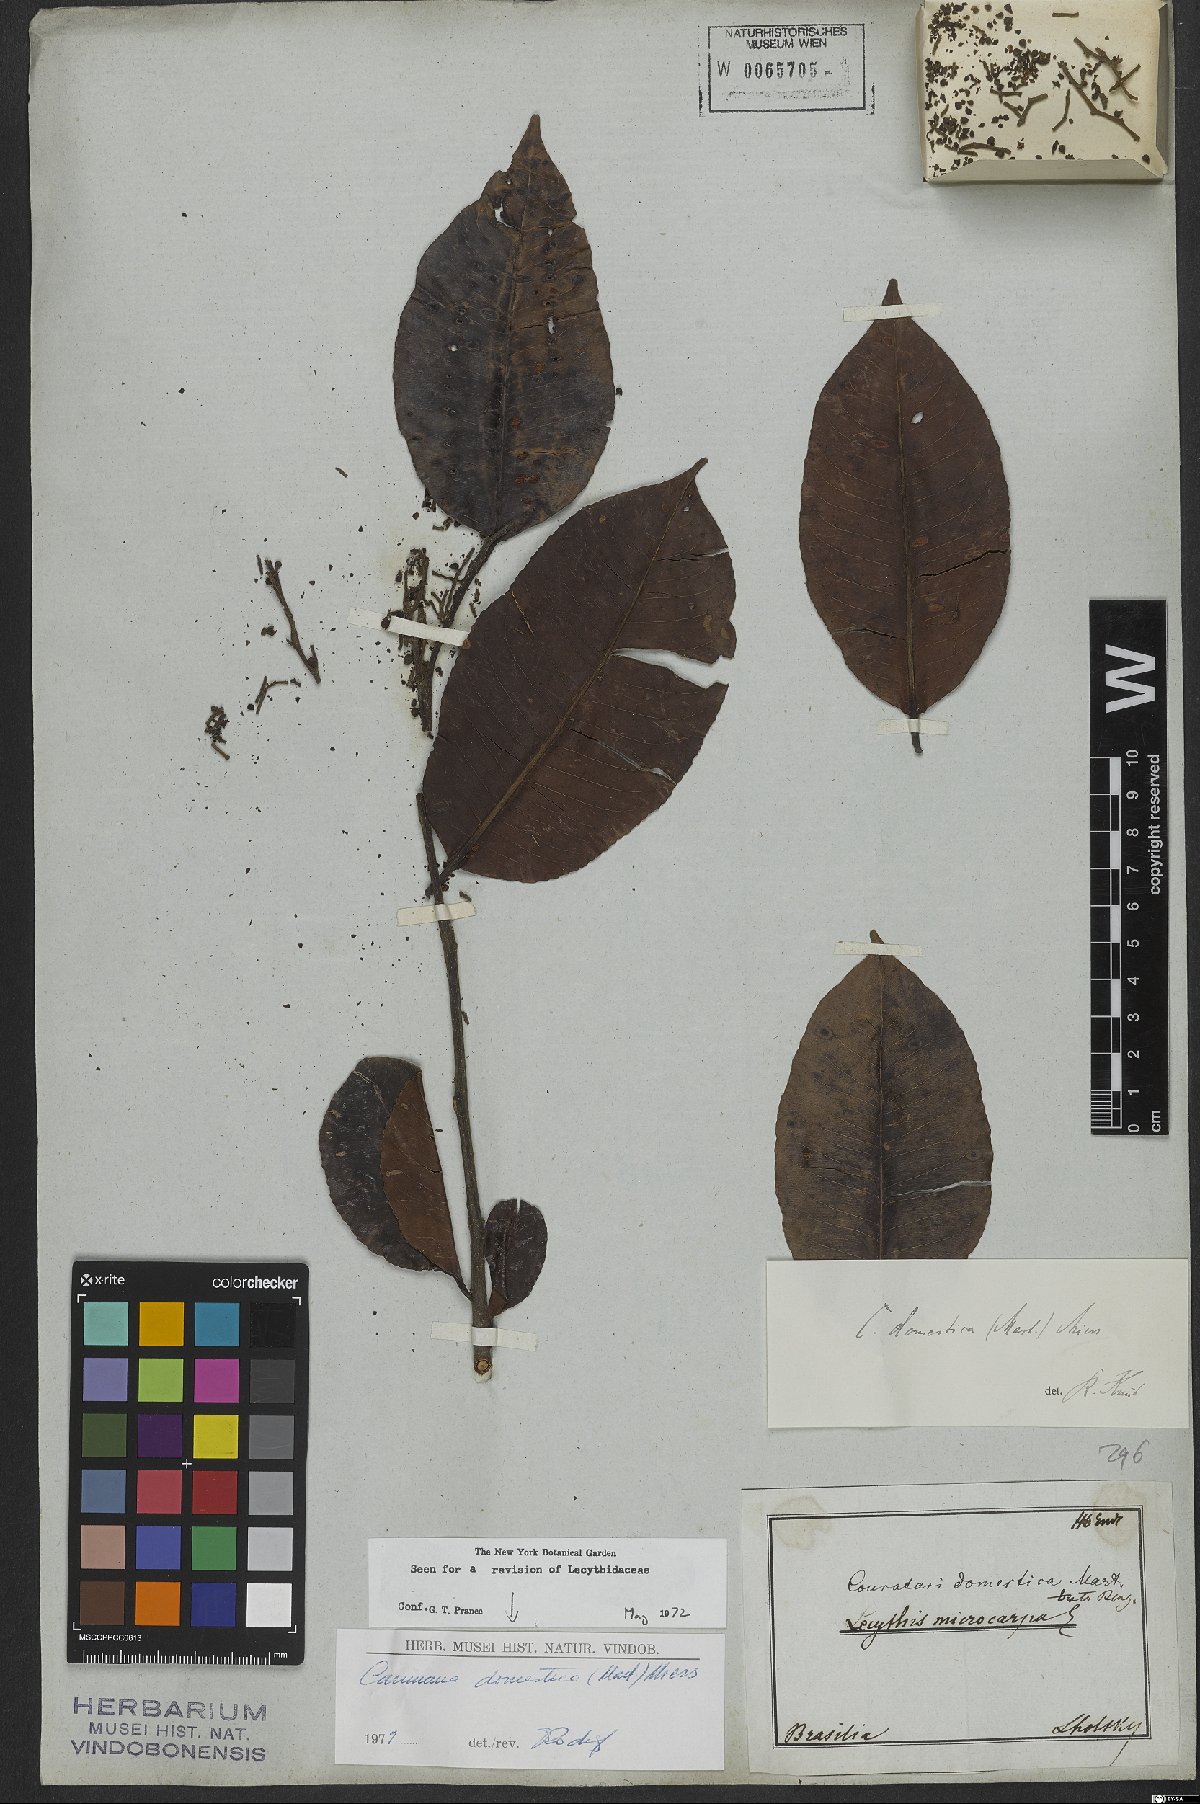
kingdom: Plantae
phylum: Tracheophyta
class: Magnoliopsida
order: Ericales
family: Lecythidaceae
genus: Cariniana
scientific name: Cariniana domestica
